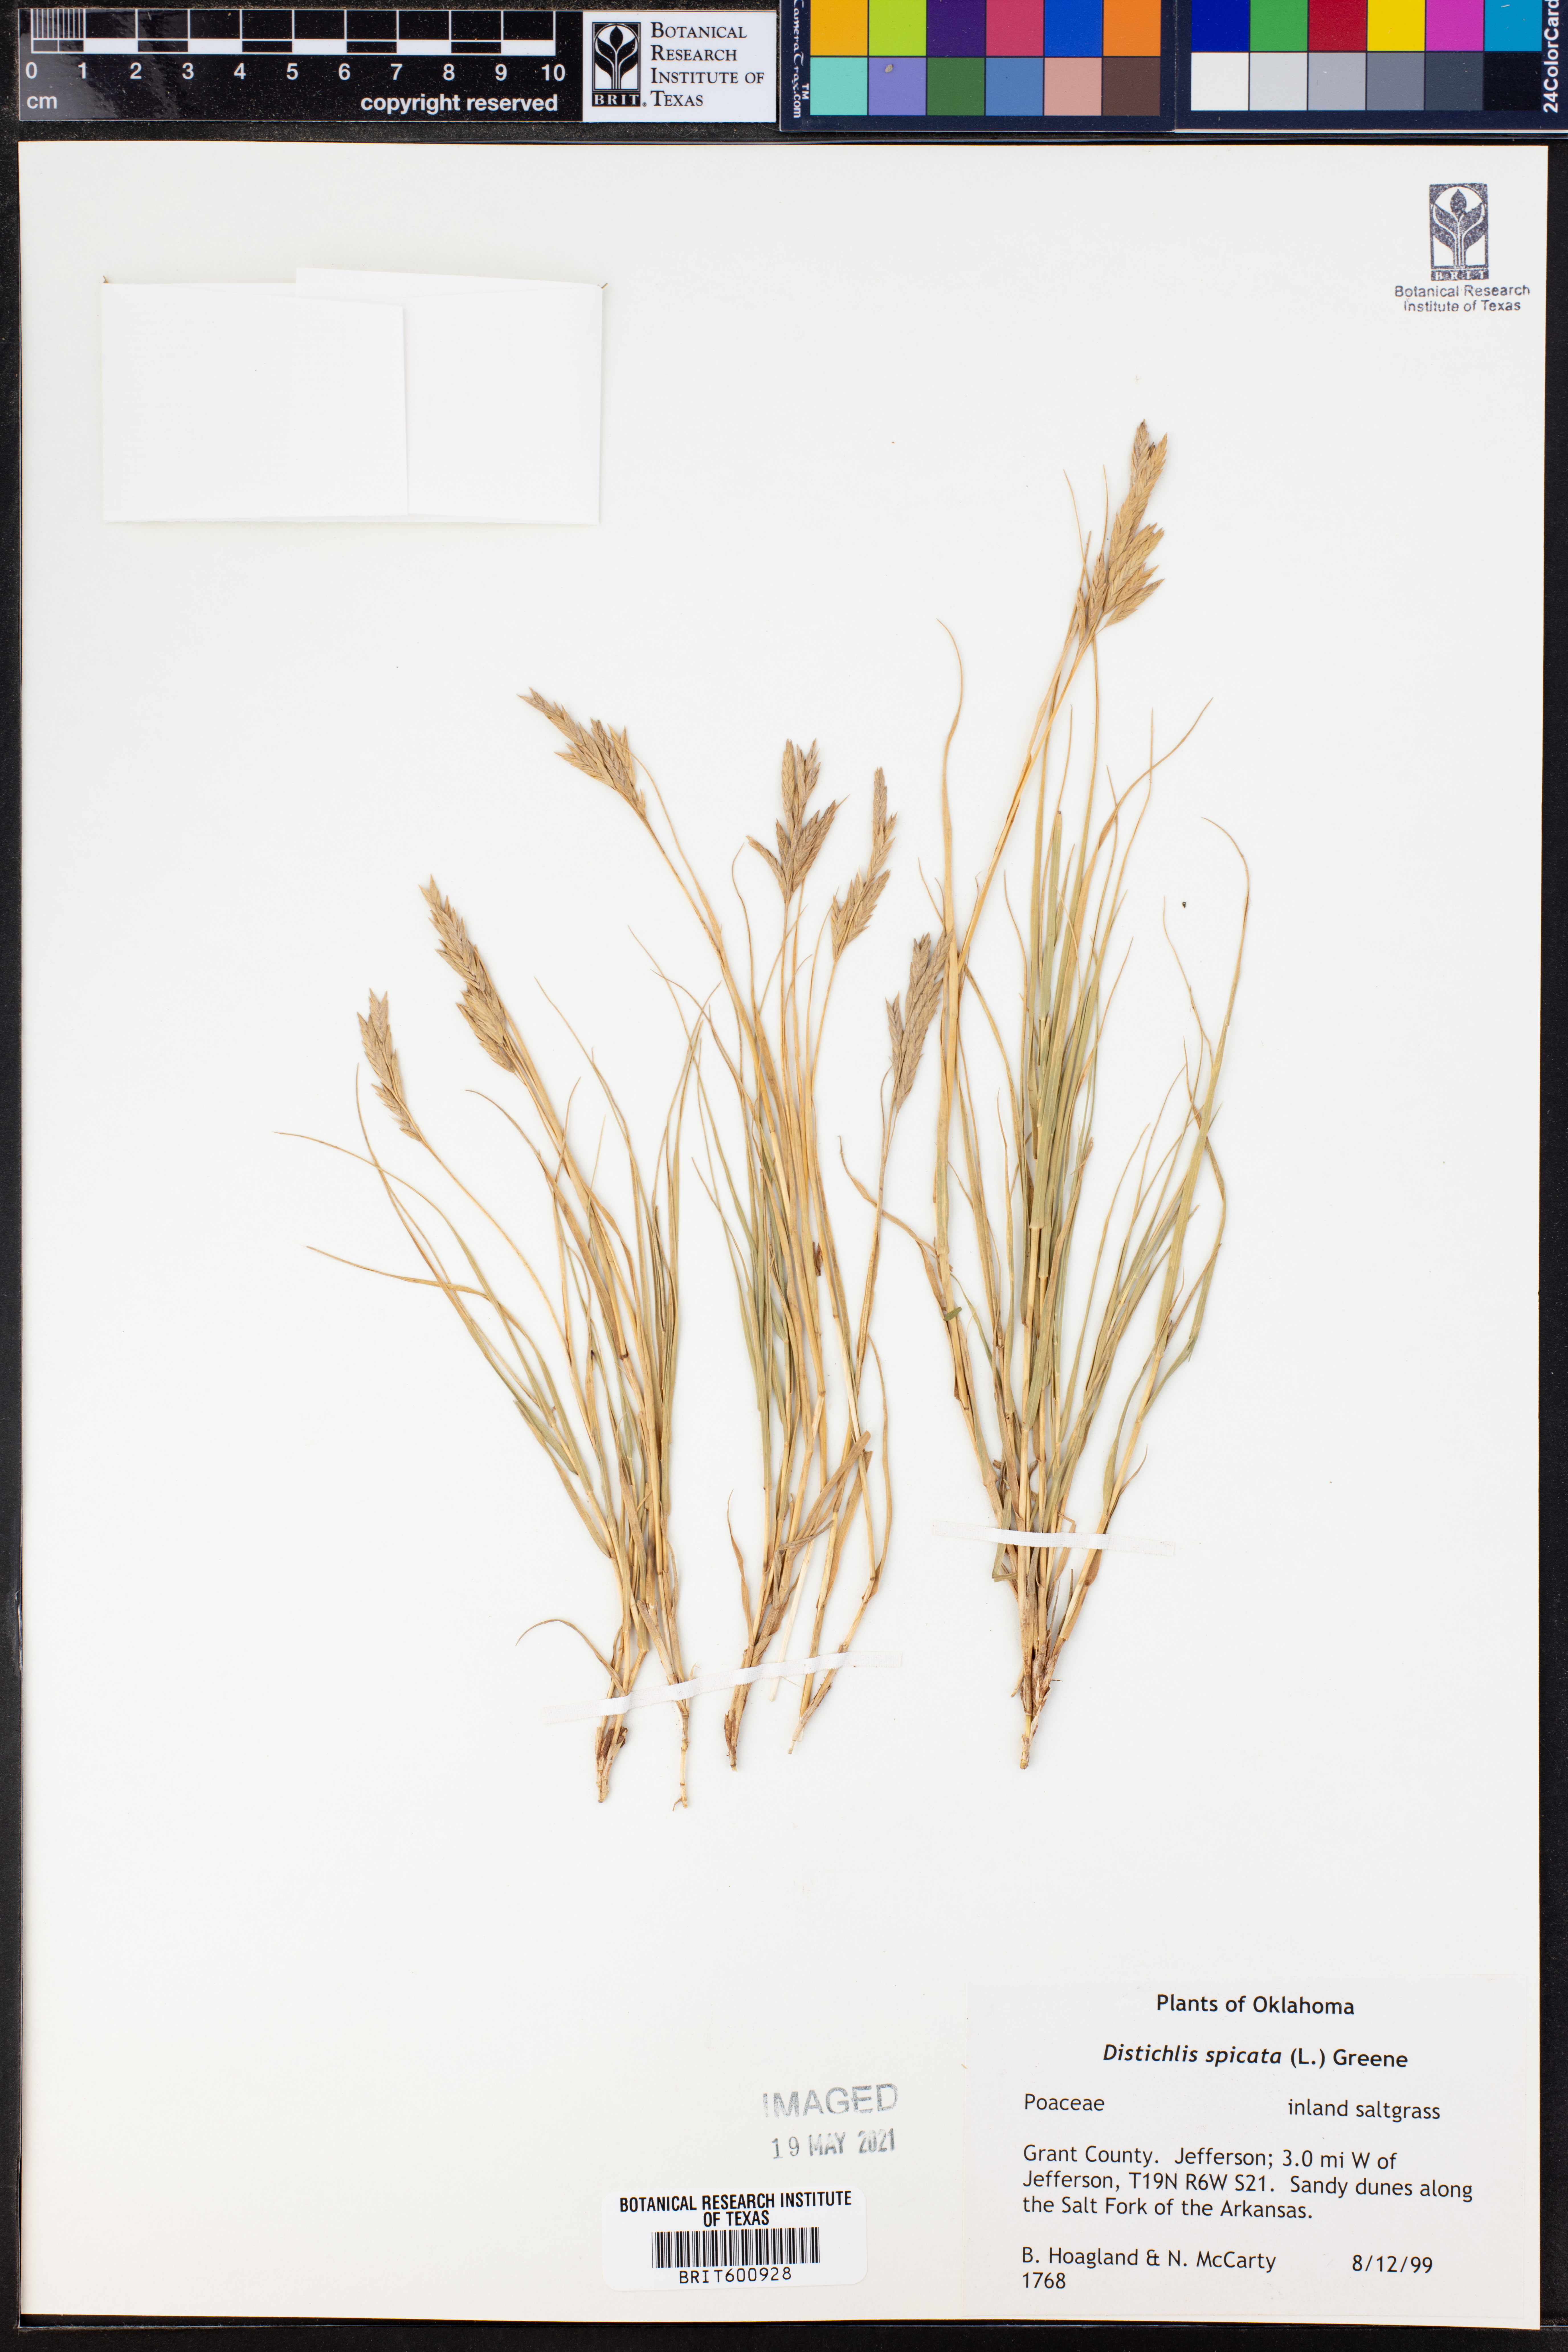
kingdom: Plantae
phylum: Tracheophyta
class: Liliopsida
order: Poales
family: Poaceae
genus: Distichlis
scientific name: Distichlis spicata
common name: Saltgrass
